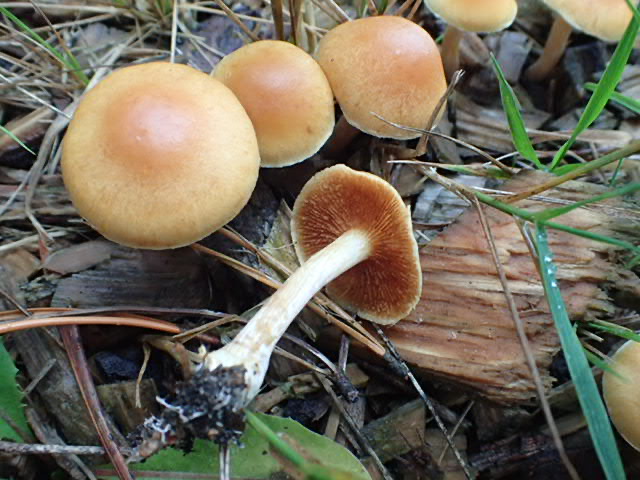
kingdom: Fungi
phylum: Basidiomycota
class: Agaricomycetes
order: Agaricales
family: Hymenogastraceae
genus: Gymnopilus
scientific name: Gymnopilus penetrans
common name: plettet flammehat
